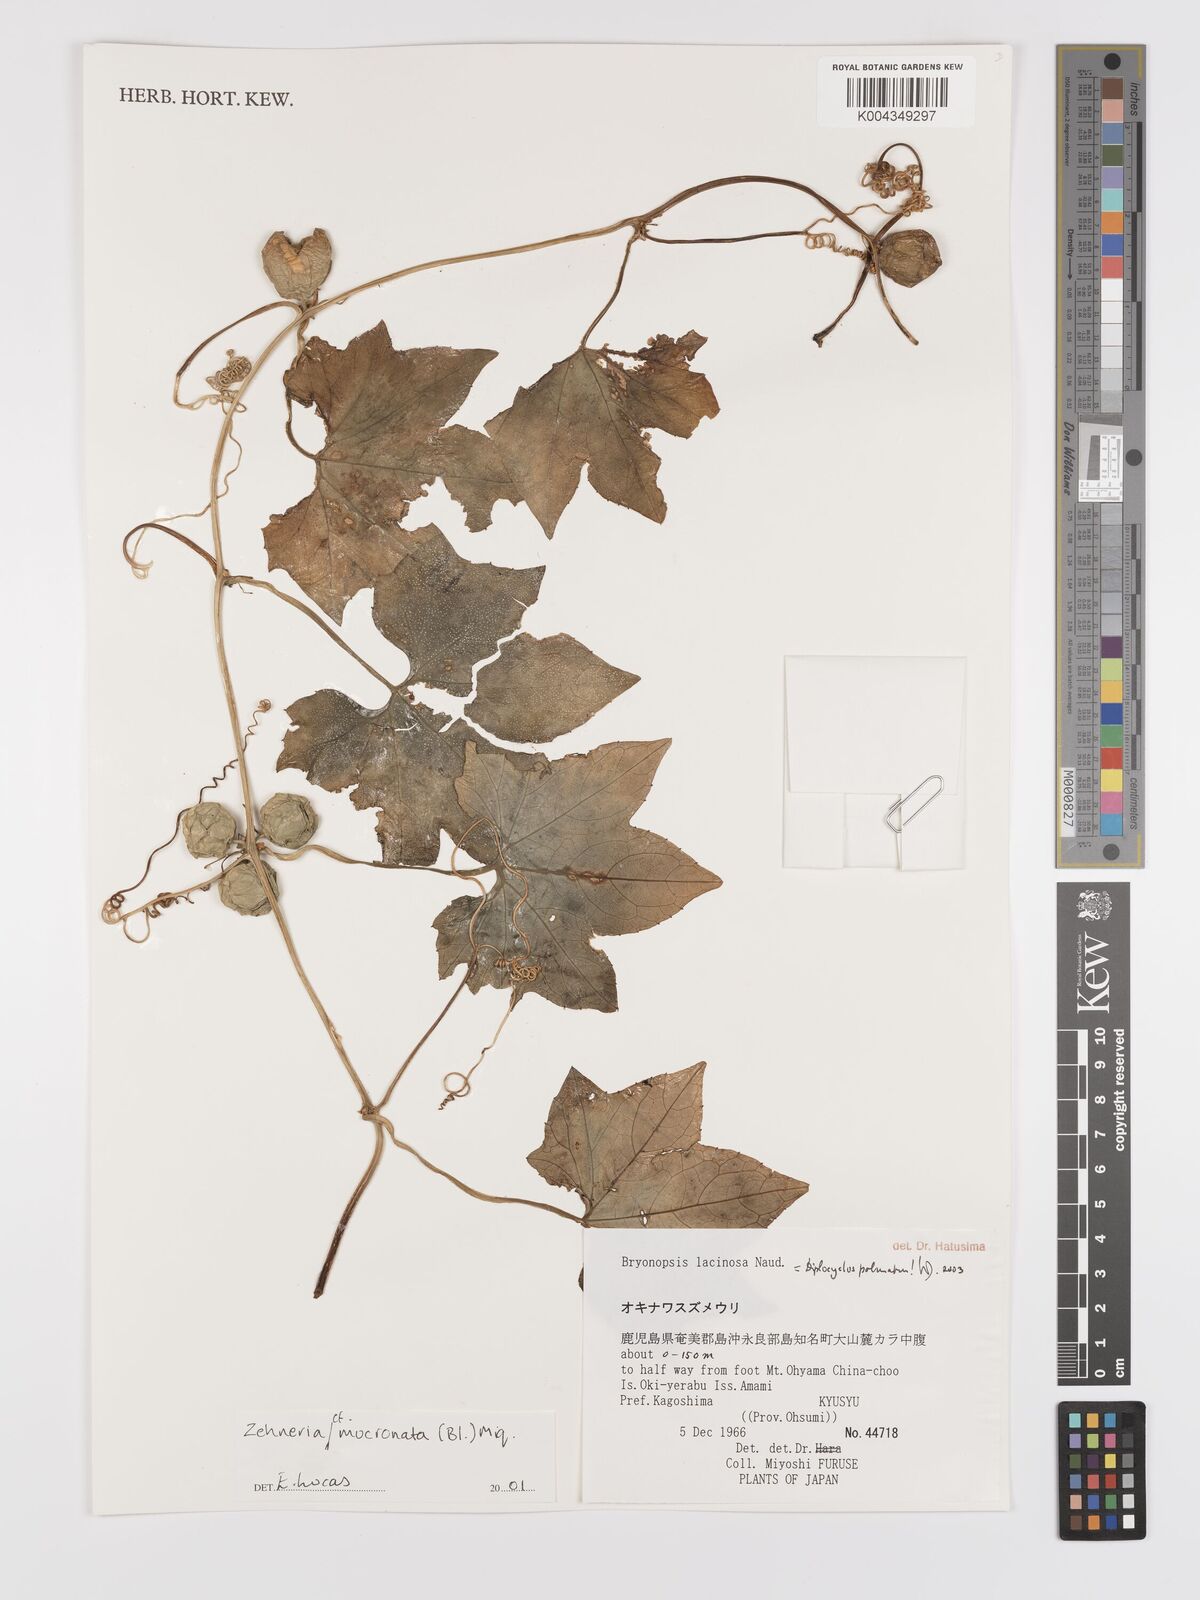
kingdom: Plantae
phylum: Tracheophyta
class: Magnoliopsida
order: Cucurbitales
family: Cucurbitaceae
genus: Zehneria
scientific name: Zehneria mucronata
